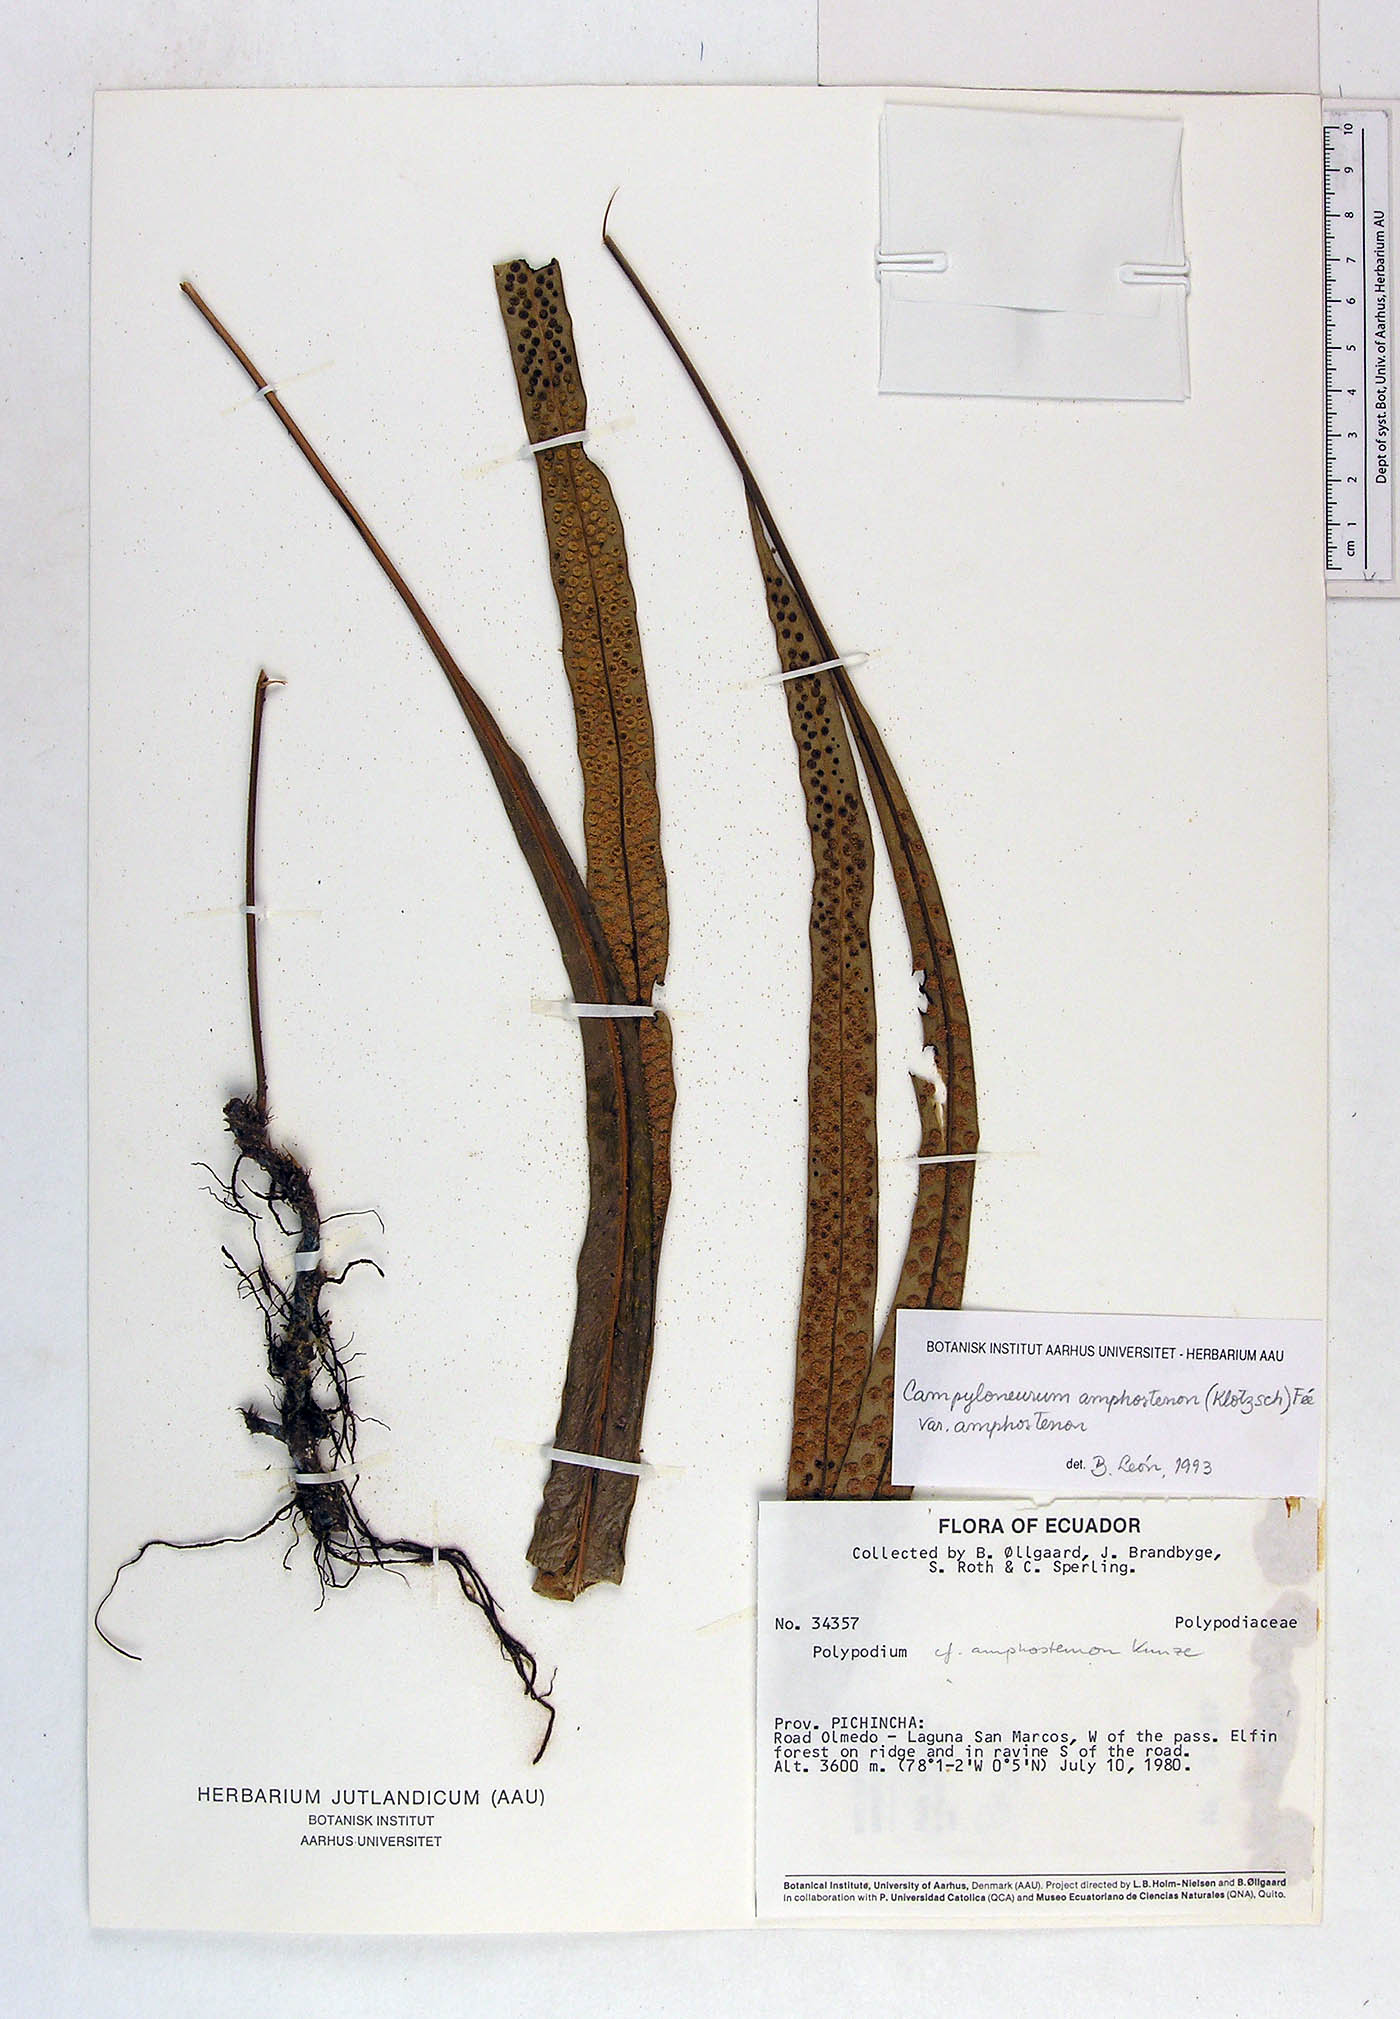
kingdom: Plantae
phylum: Tracheophyta
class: Polypodiopsida
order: Polypodiales
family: Polypodiaceae
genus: Campyloneurum
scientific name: Campyloneurum angustifolium
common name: Narrow-leaf strap fern
